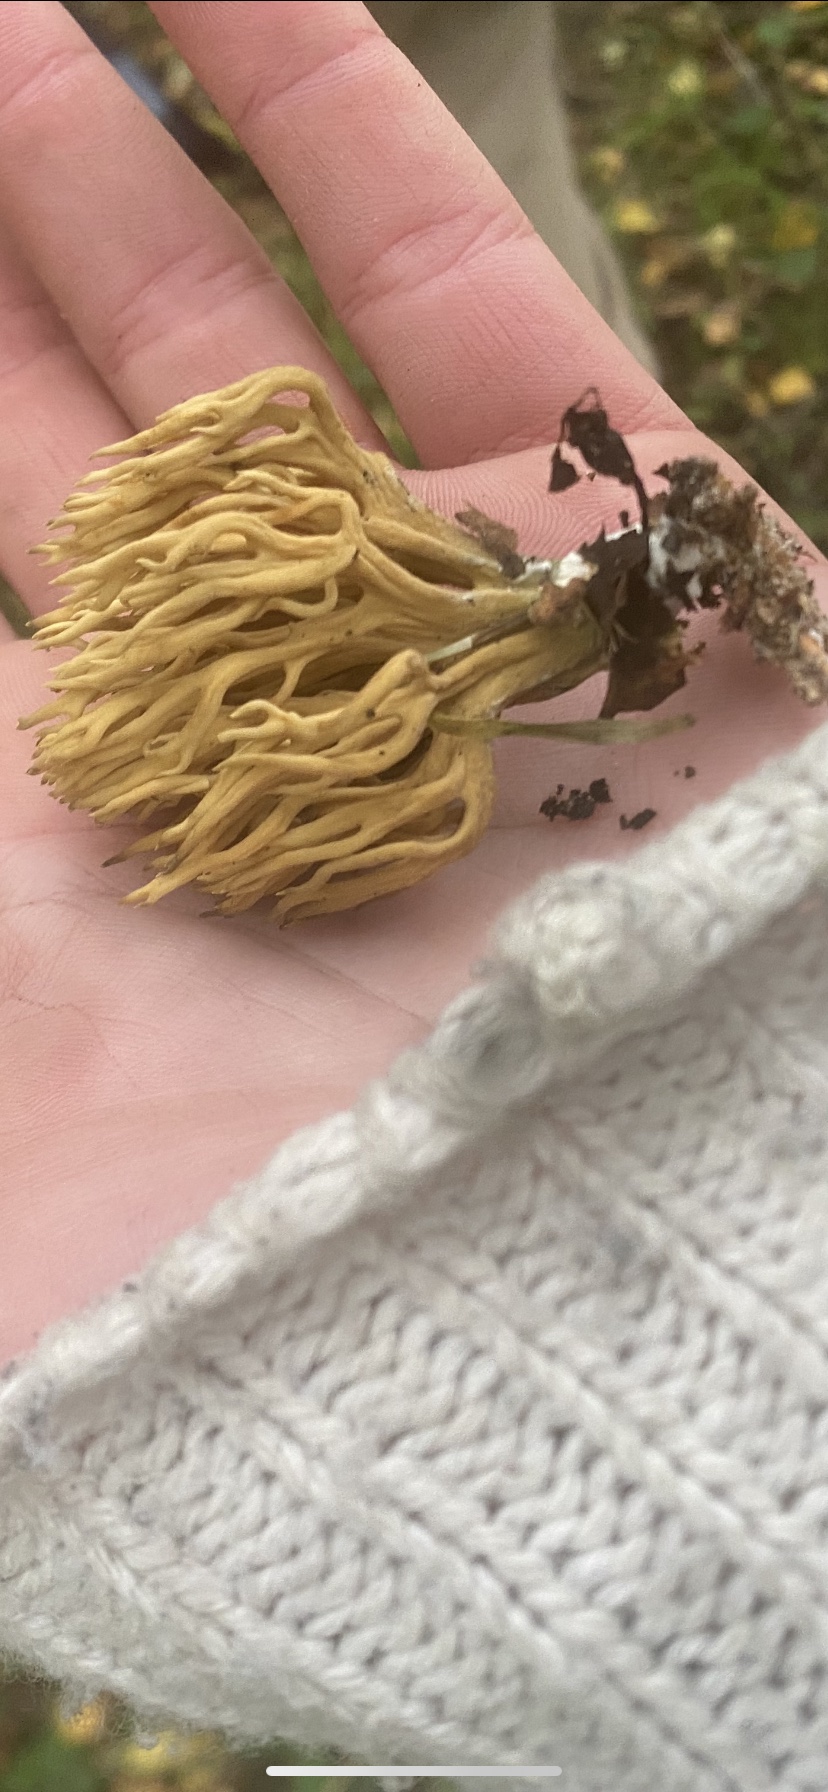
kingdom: Fungi
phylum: Basidiomycota
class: Agaricomycetes
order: Gomphales
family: Gomphaceae
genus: Phaeoclavulina
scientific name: Phaeoclavulina
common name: koralsvamp
